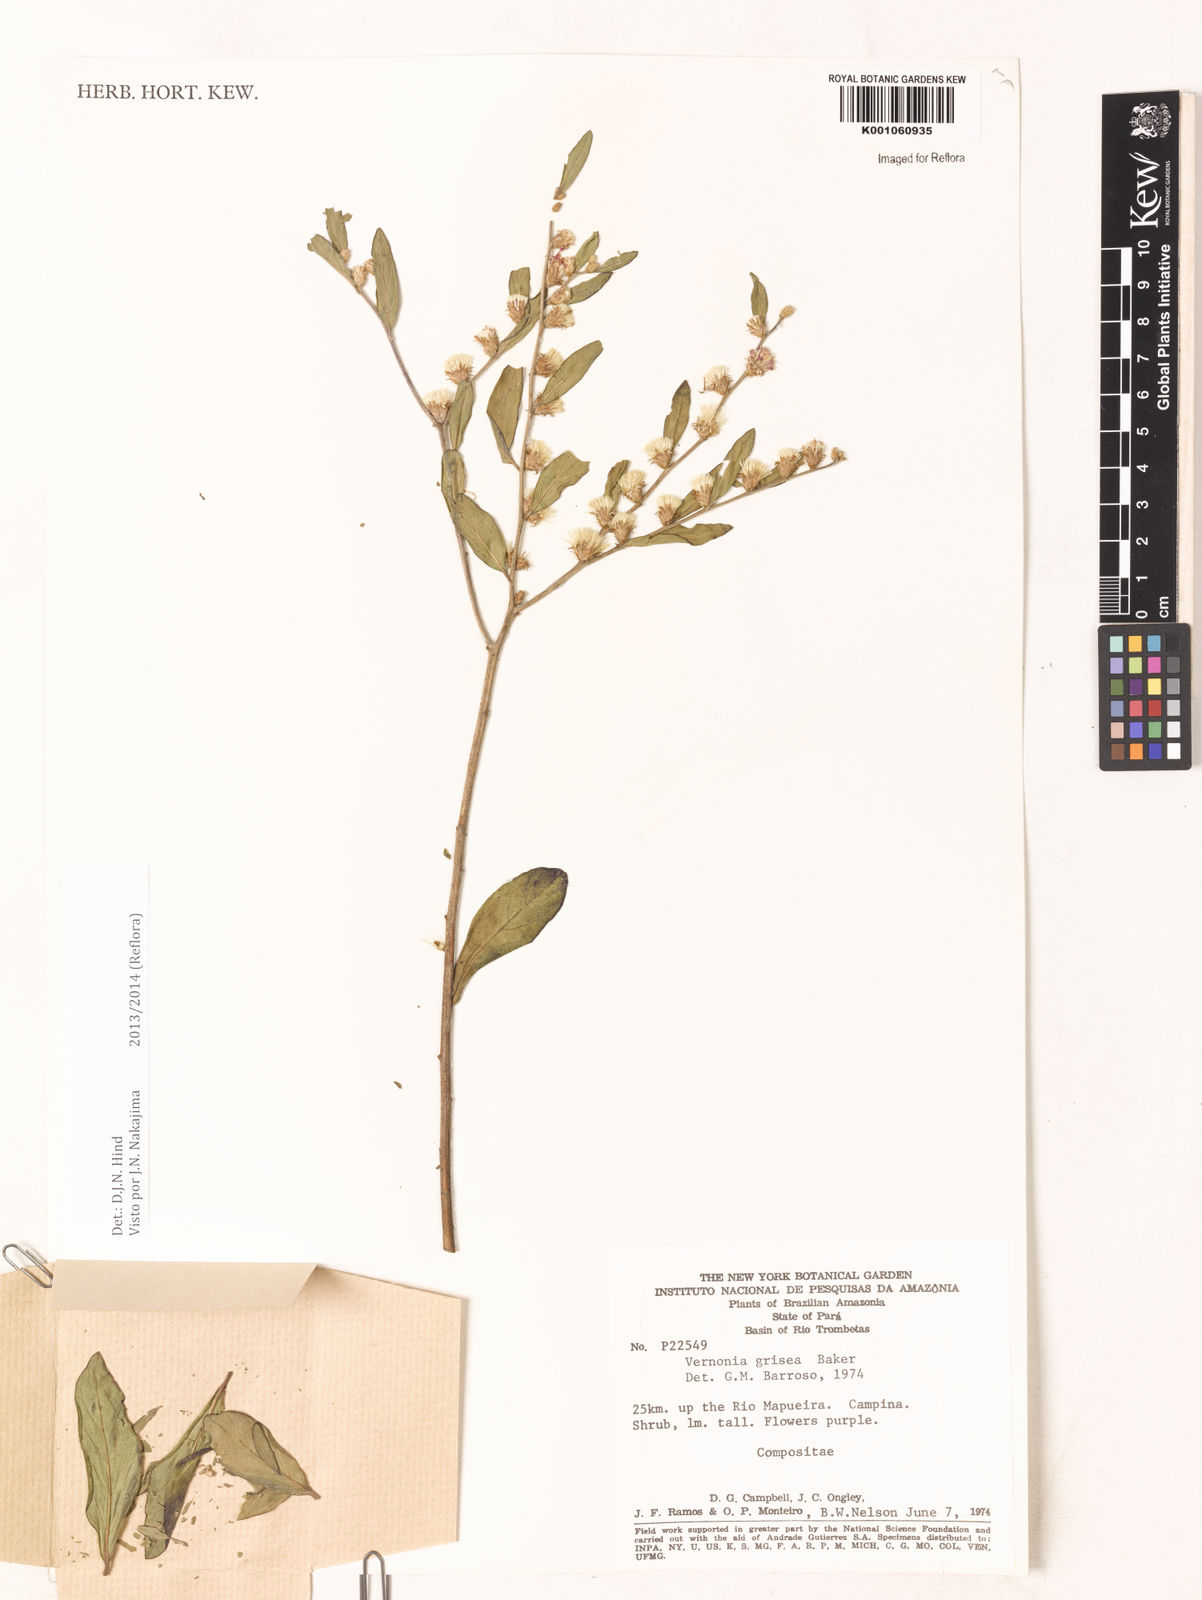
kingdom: Plantae
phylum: Tracheophyta
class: Magnoliopsida
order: Asterales
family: Asteraceae
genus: Lepidaploa
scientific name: Lepidaploa grisea
